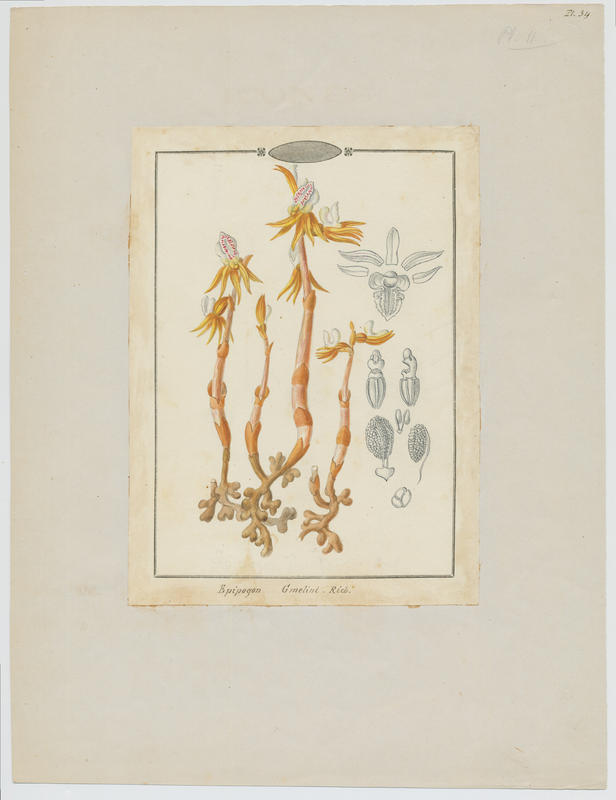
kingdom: Plantae
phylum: Tracheophyta
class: Liliopsida
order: Asparagales
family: Orchidaceae
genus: Epipogium
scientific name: Epipogium aphyllum
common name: Ghost orchid
